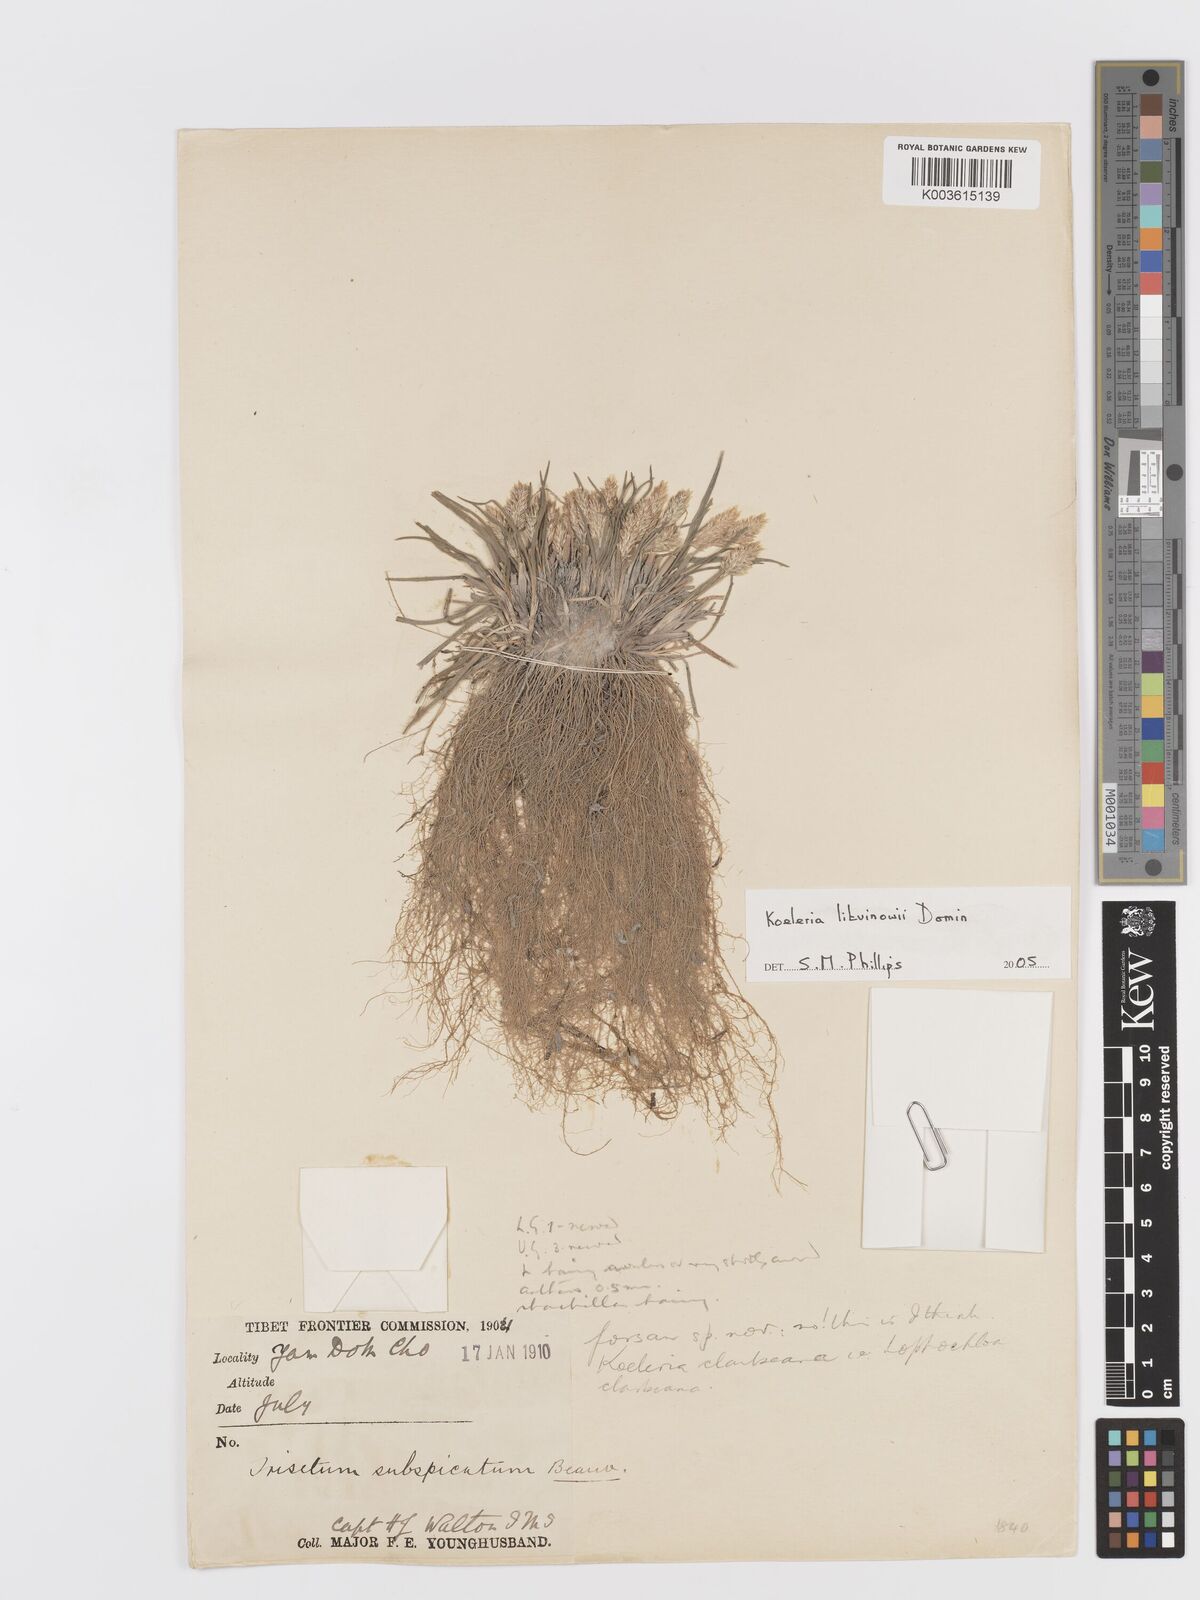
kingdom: Plantae
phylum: Tracheophyta
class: Liliopsida
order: Poales
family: Poaceae
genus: Koeleria
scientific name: Koeleria argentea
